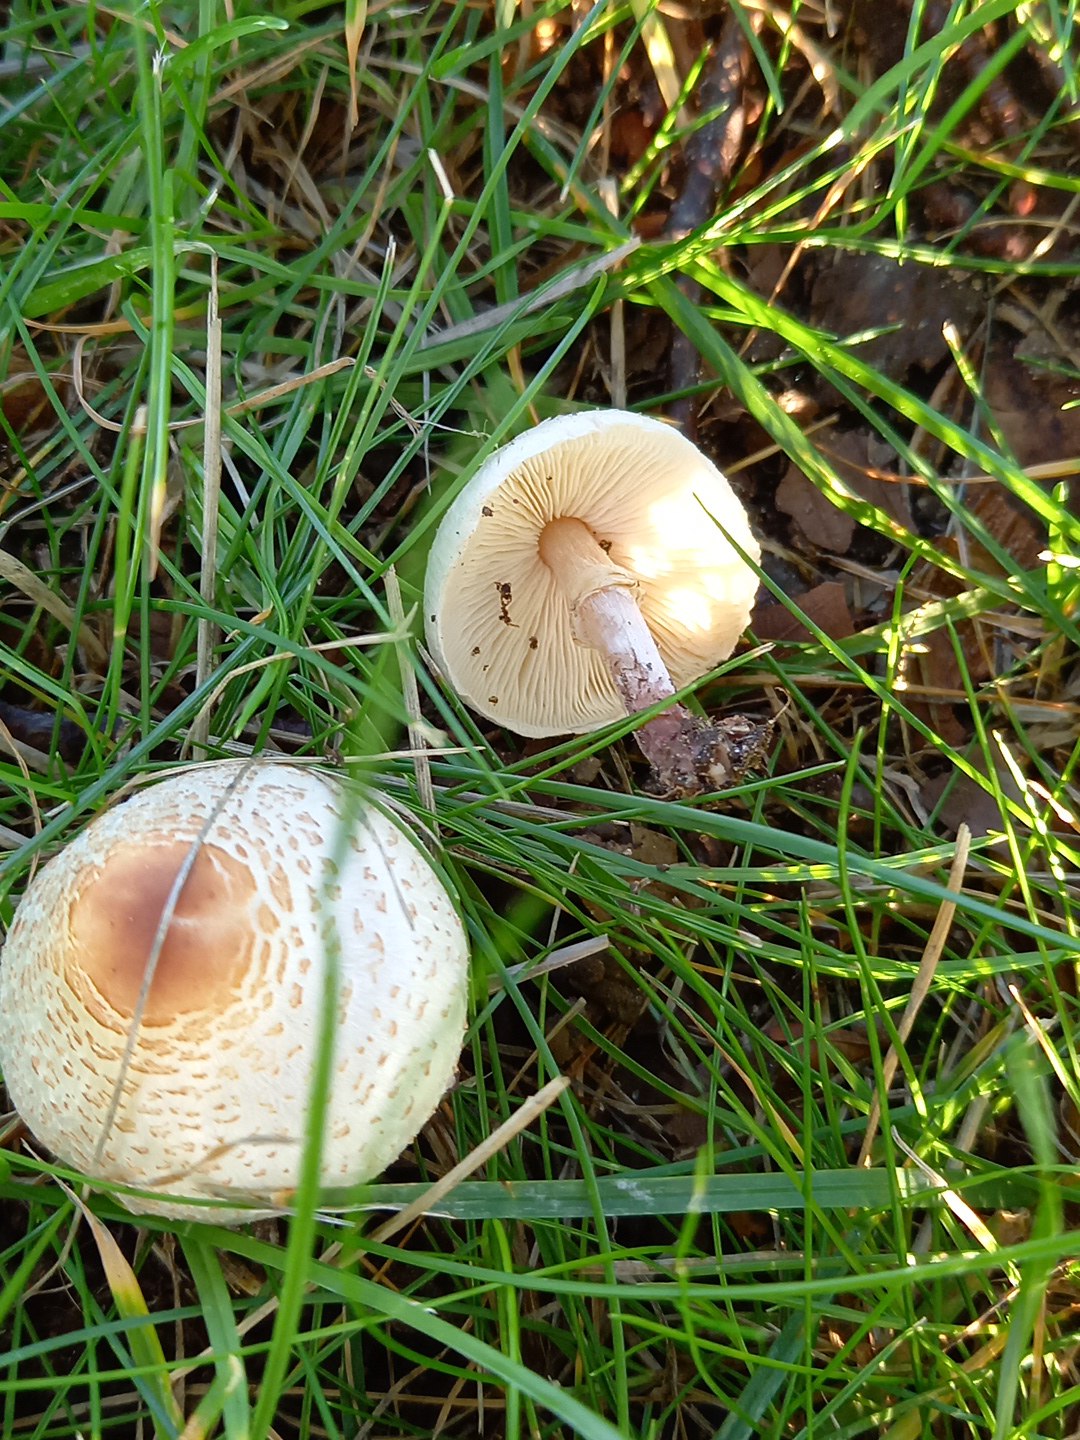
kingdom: Fungi
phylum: Basidiomycota
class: Agaricomycetes
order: Agaricales
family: Agaricaceae
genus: Lepiota
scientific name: Lepiota cristata
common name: stinkende parasolhat
